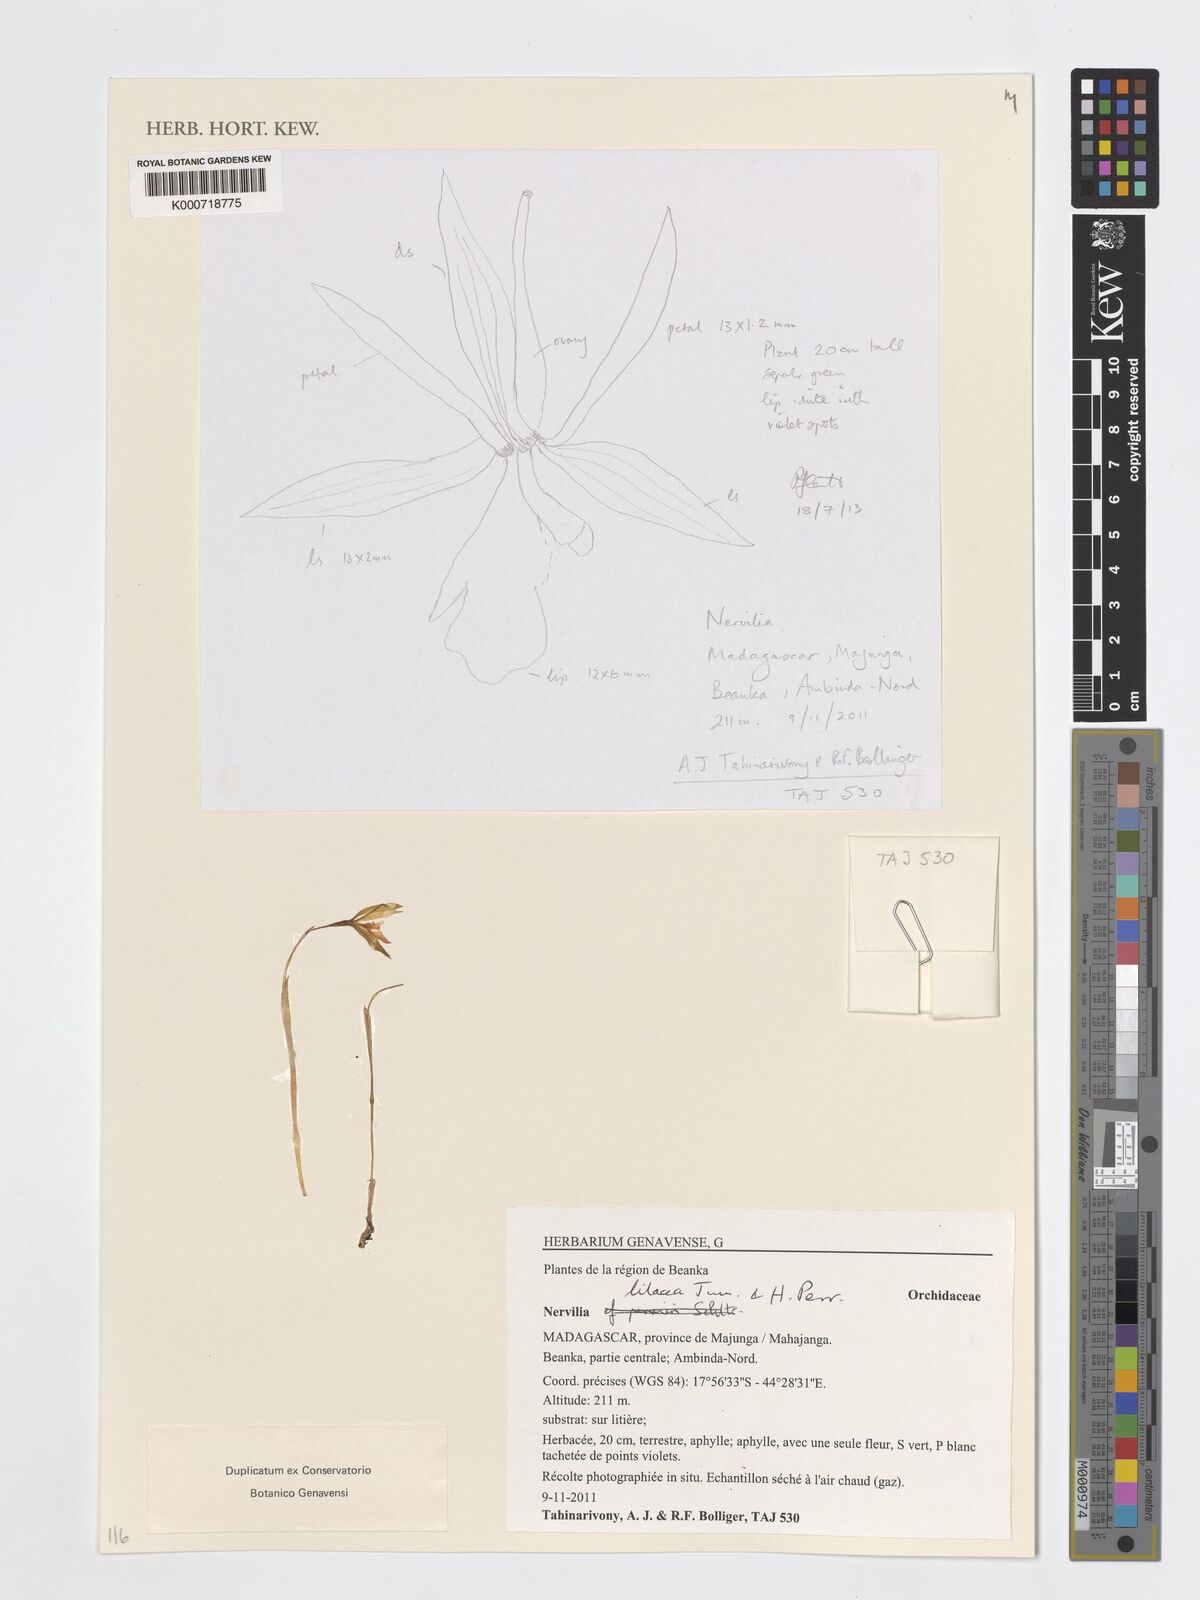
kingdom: Plantae
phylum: Tracheophyta
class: Liliopsida
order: Asparagales
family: Orchidaceae
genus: Nervilia
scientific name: Nervilia lilacea
